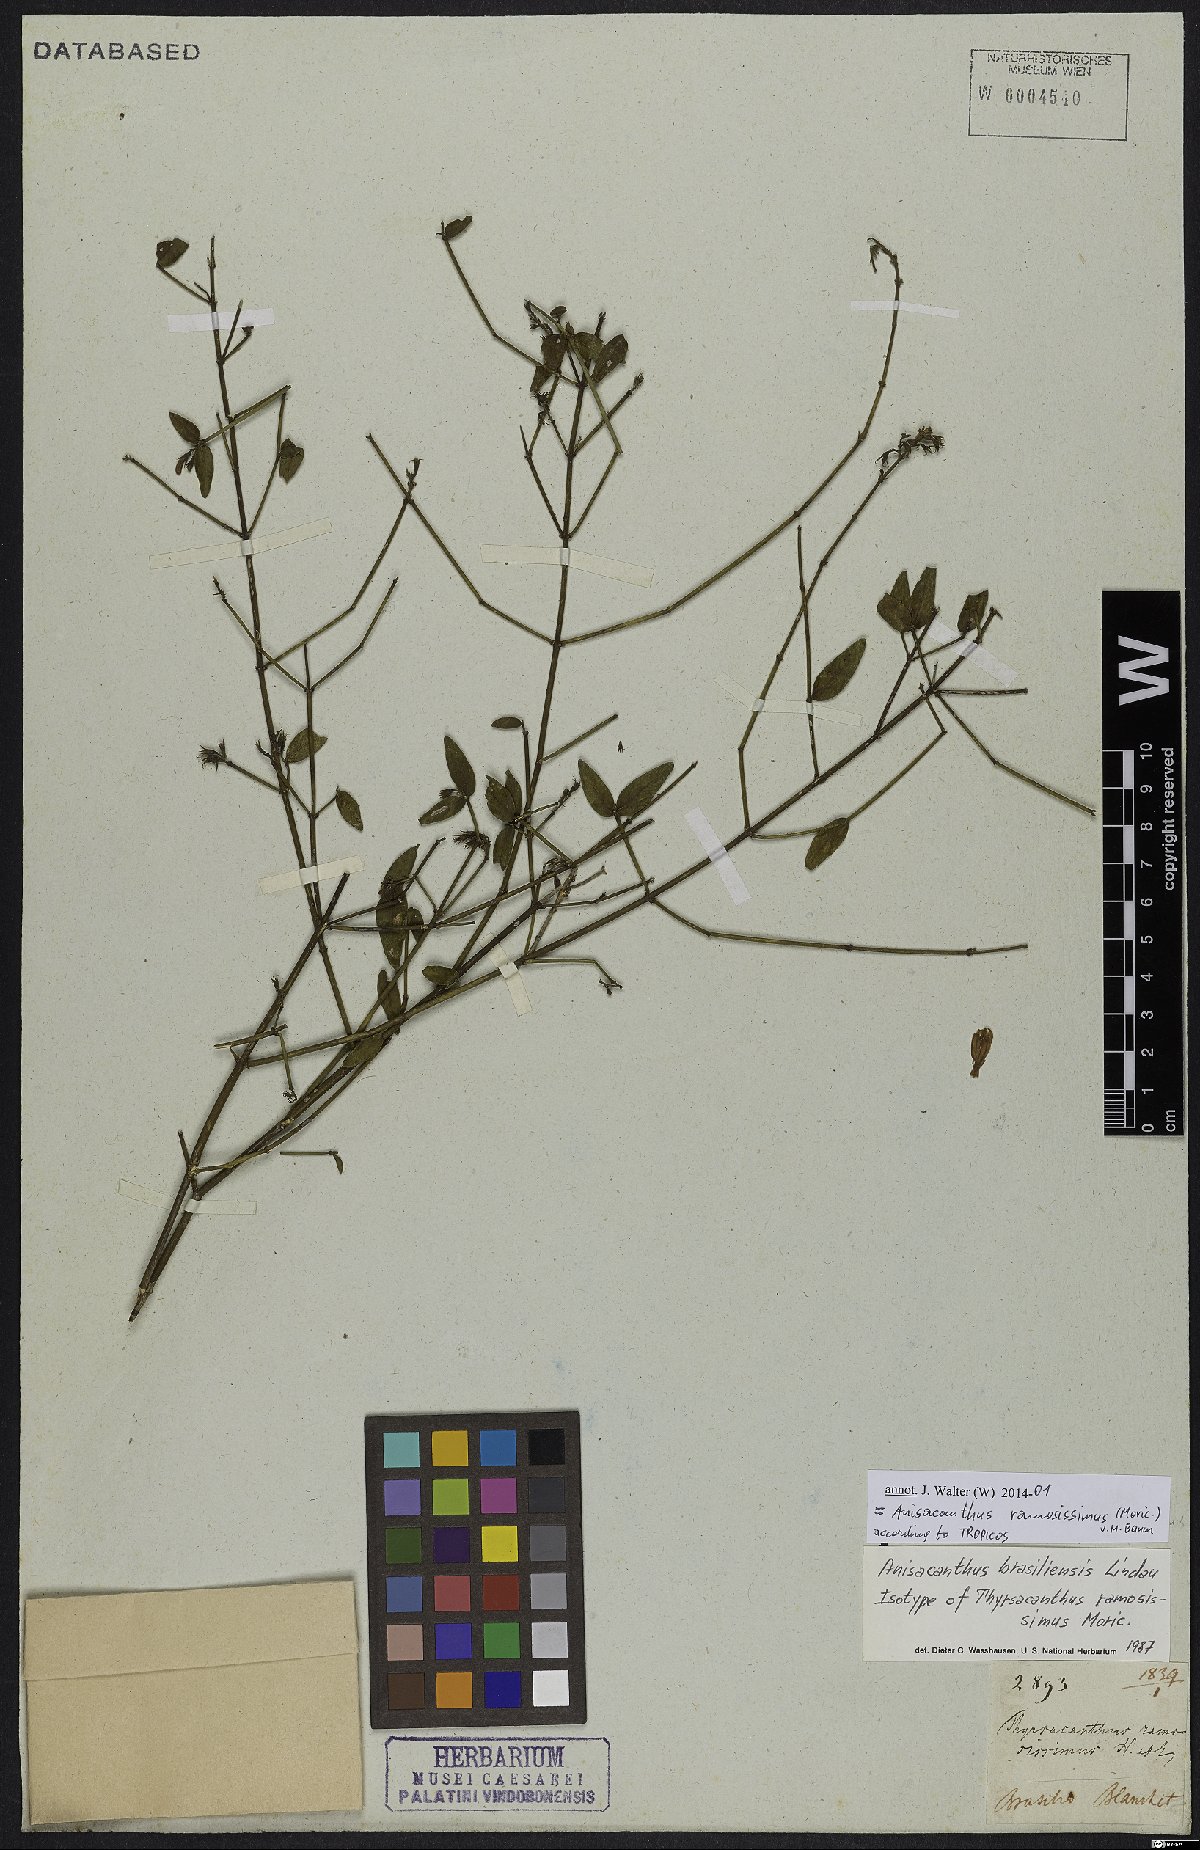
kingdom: Plantae
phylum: Tracheophyta
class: Magnoliopsida
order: Lamiales
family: Acanthaceae
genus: Thyrsacanthus
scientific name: Thyrsacanthus ramosissimus
